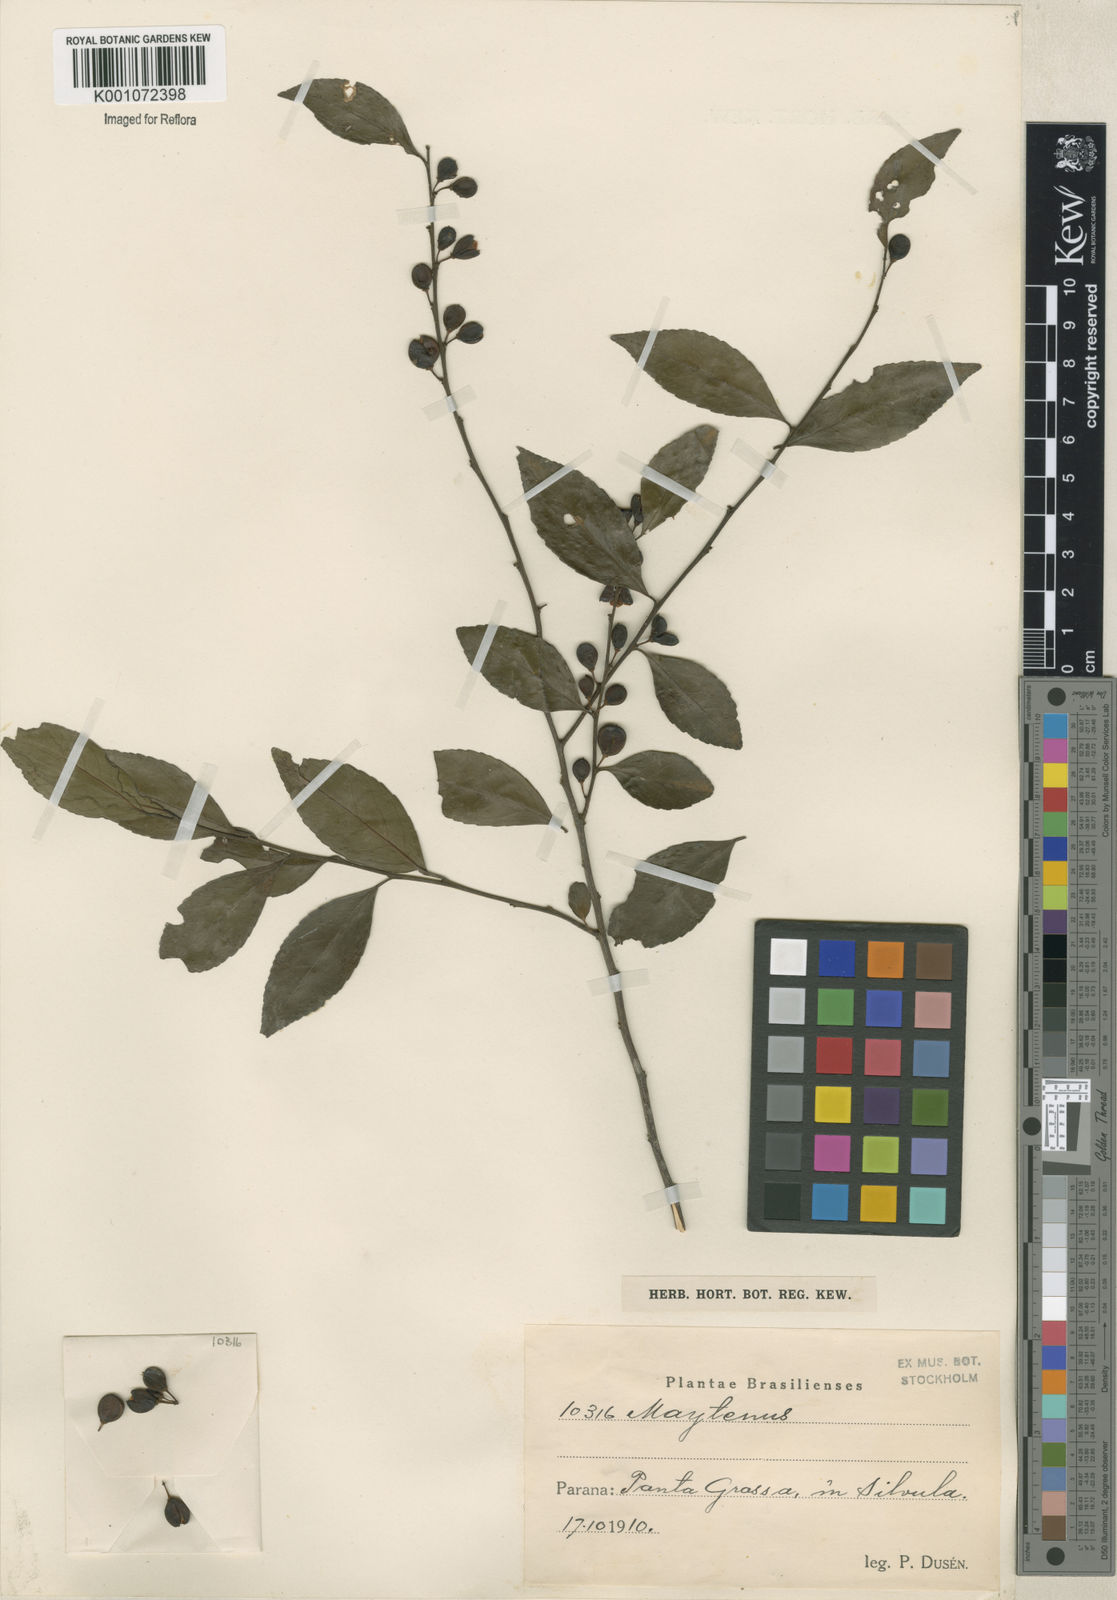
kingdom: Plantae
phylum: Tracheophyta
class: Magnoliopsida
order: Celastrales
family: Celastraceae
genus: Maytenus
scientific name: Maytenus
